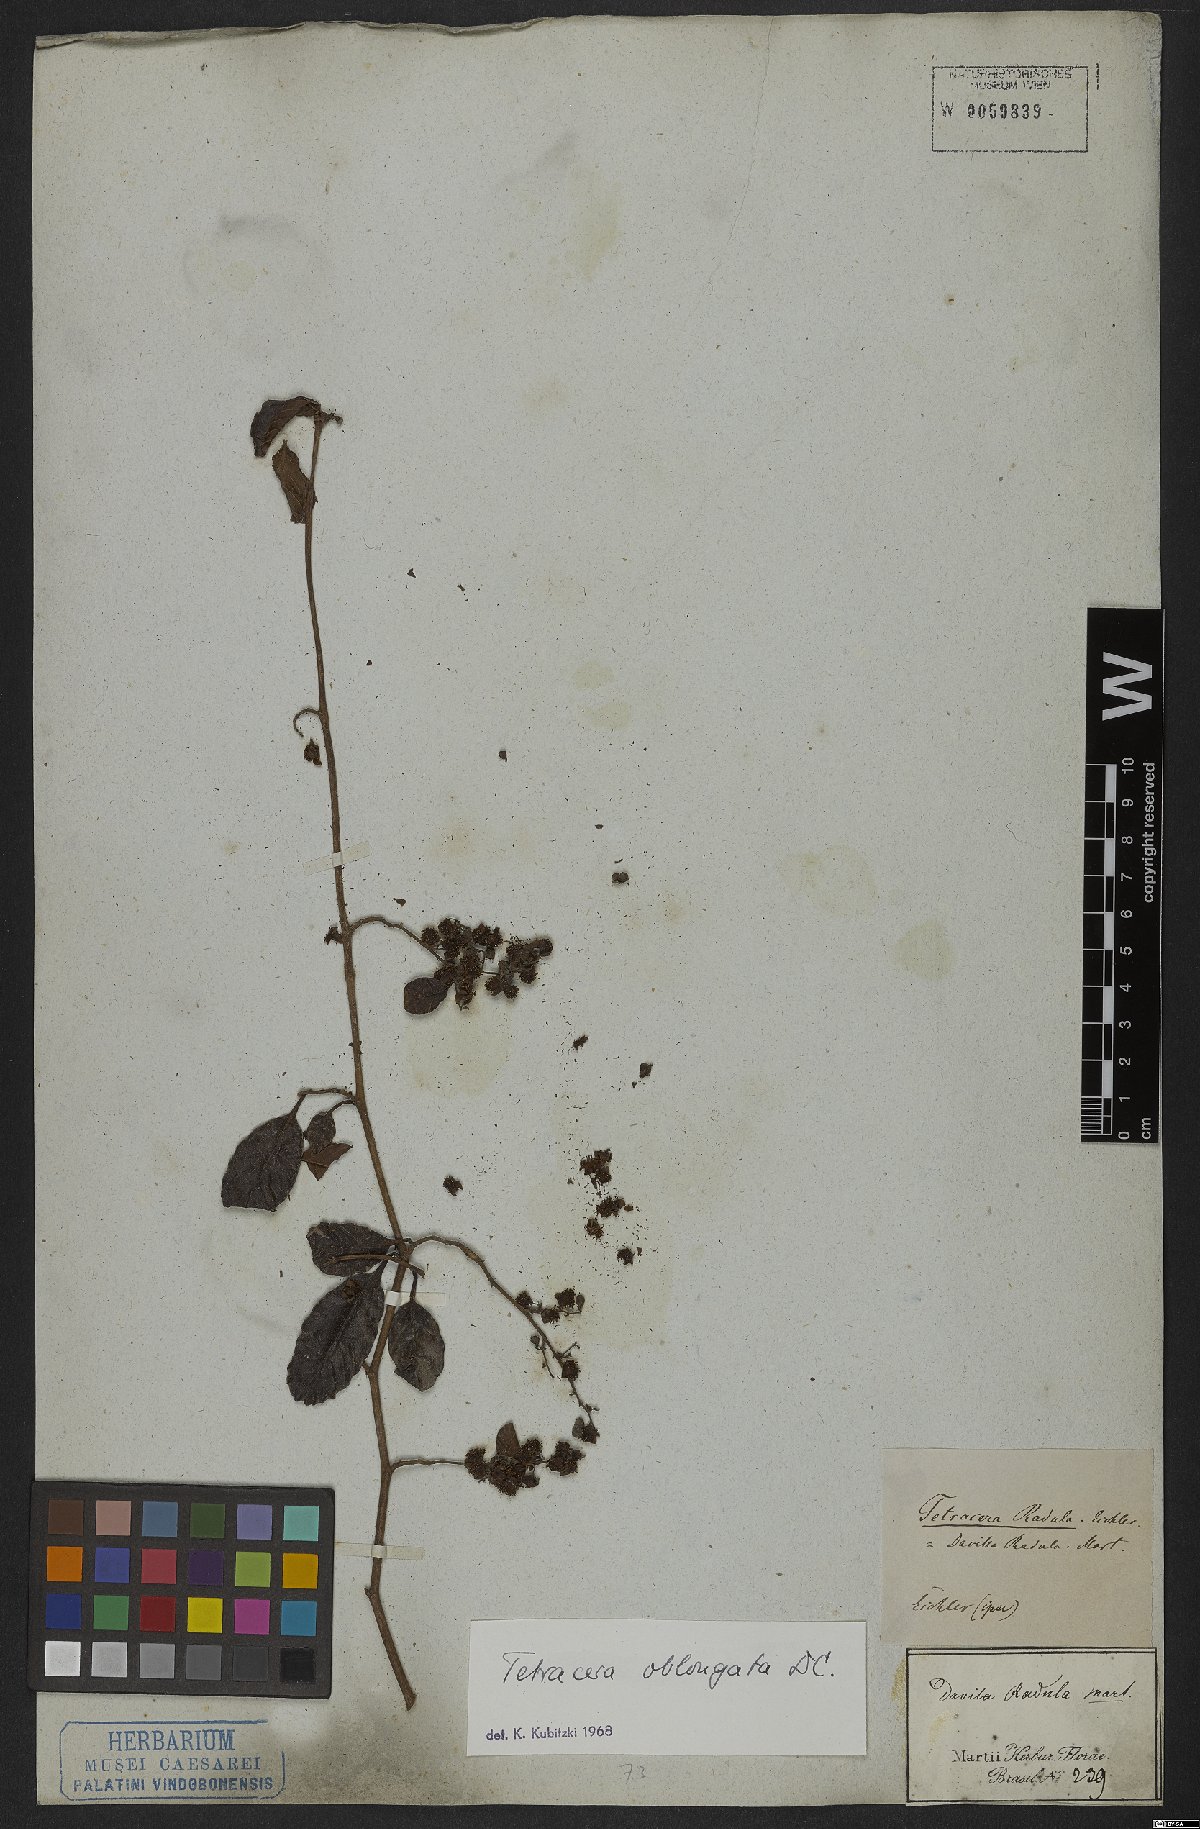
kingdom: Plantae
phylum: Tracheophyta
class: Magnoliopsida
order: Dilleniales
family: Dilleniaceae
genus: Tetracera
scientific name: Tetracera oblongata
